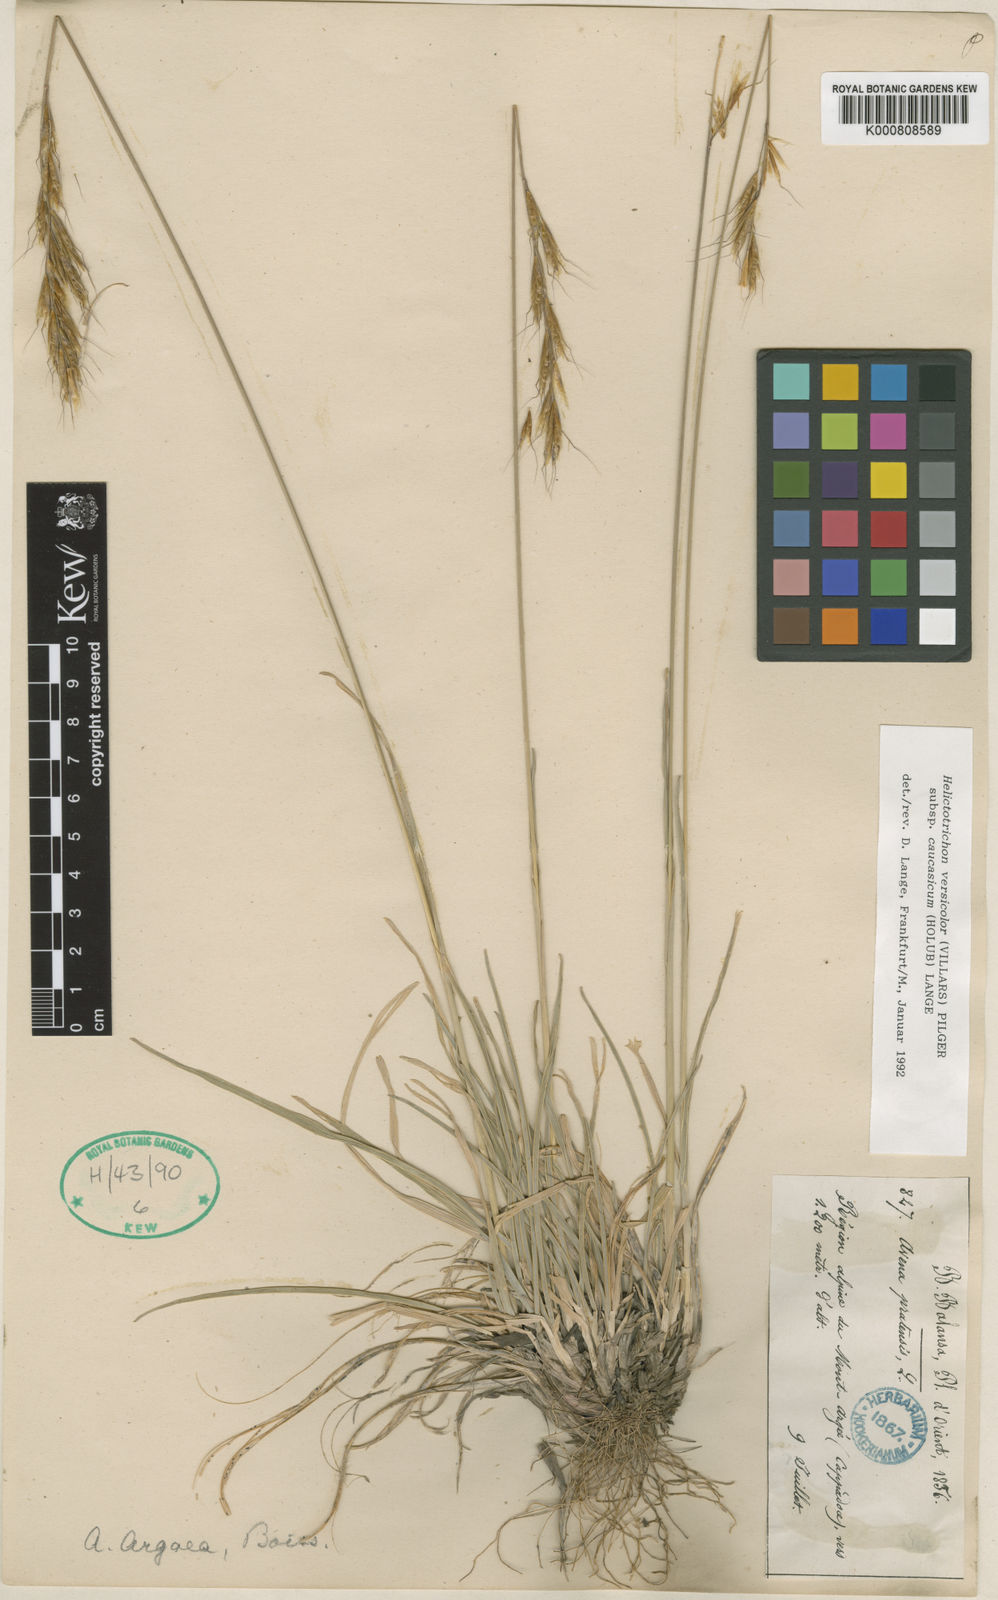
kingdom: Plantae
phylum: Tracheophyta
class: Liliopsida
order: Poales
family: Poaceae
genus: Helictochloa
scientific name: Helictochloa versicolor
